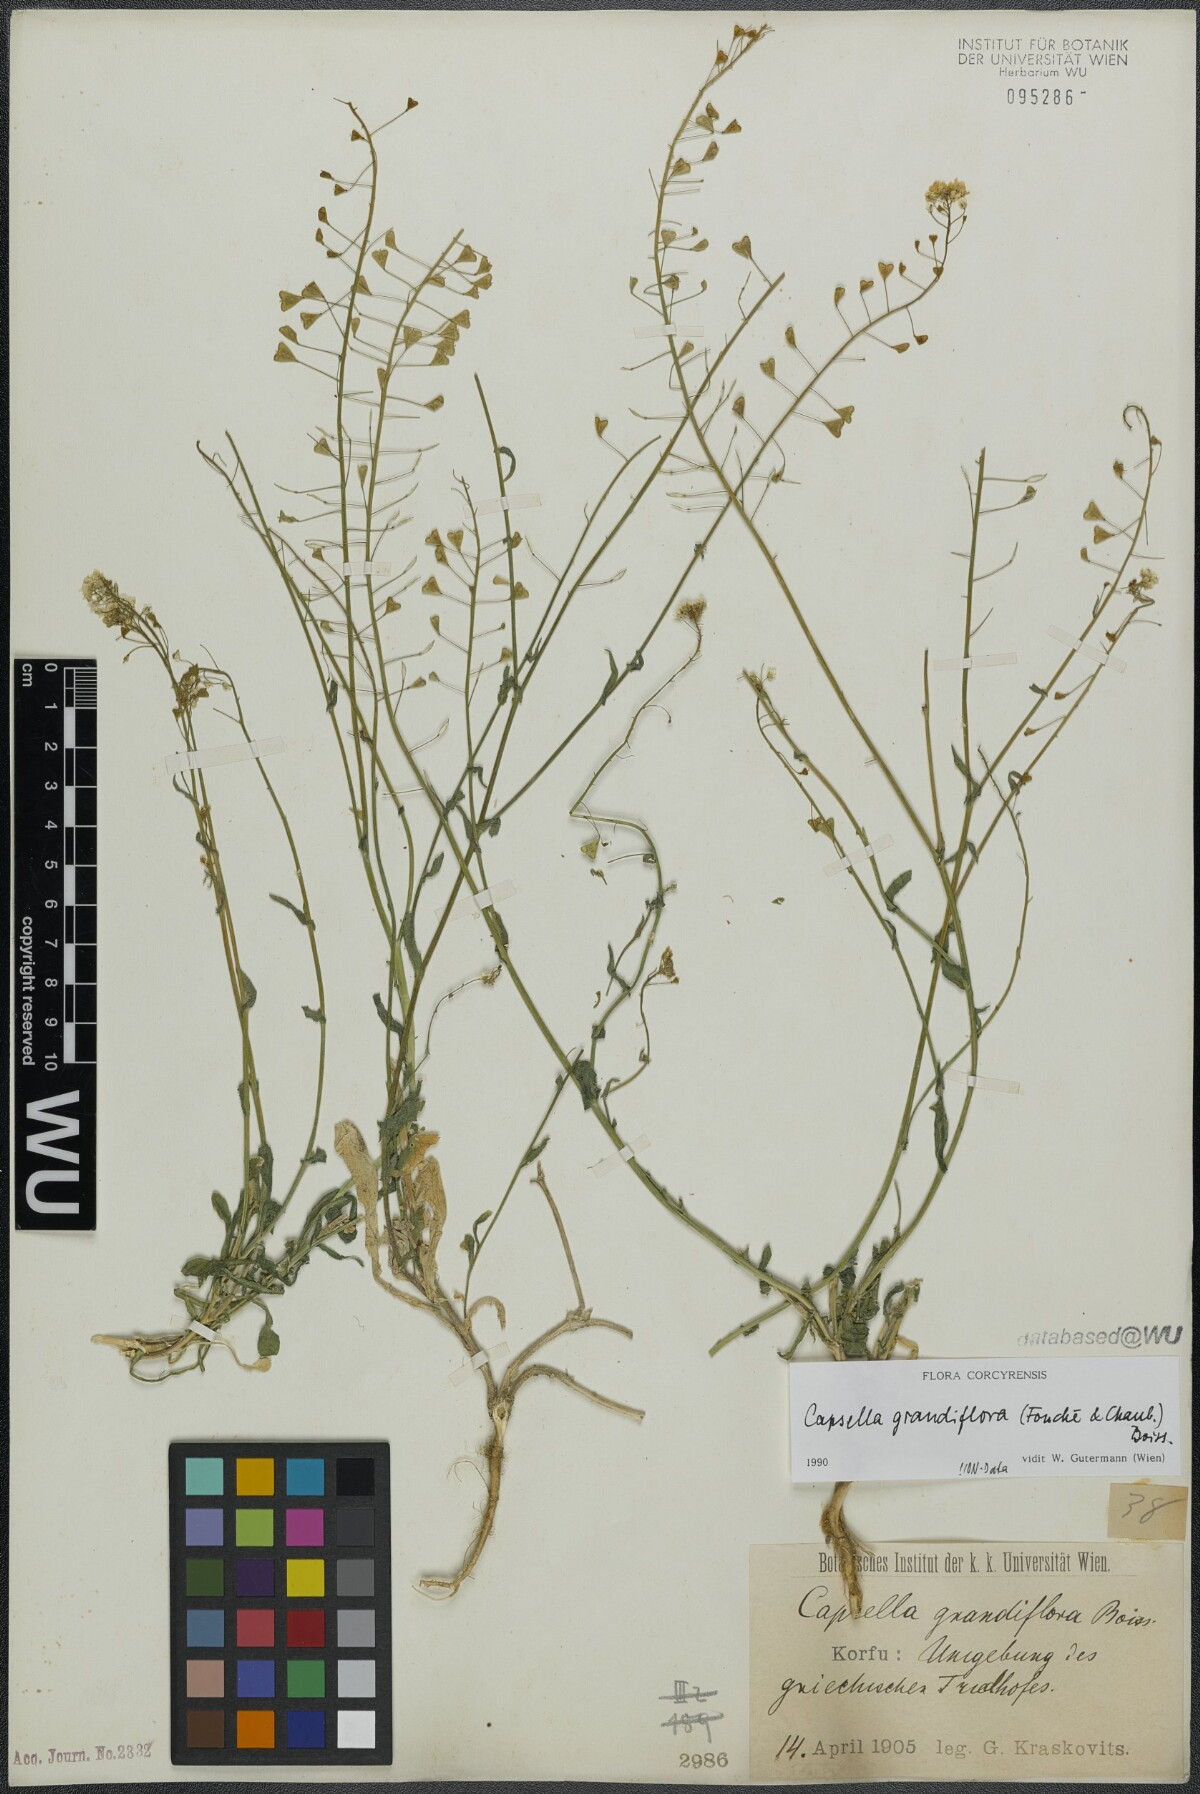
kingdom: Plantae
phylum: Tracheophyta
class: Magnoliopsida
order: Brassicales
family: Brassicaceae
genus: Capsella
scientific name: Capsella grandiflora
